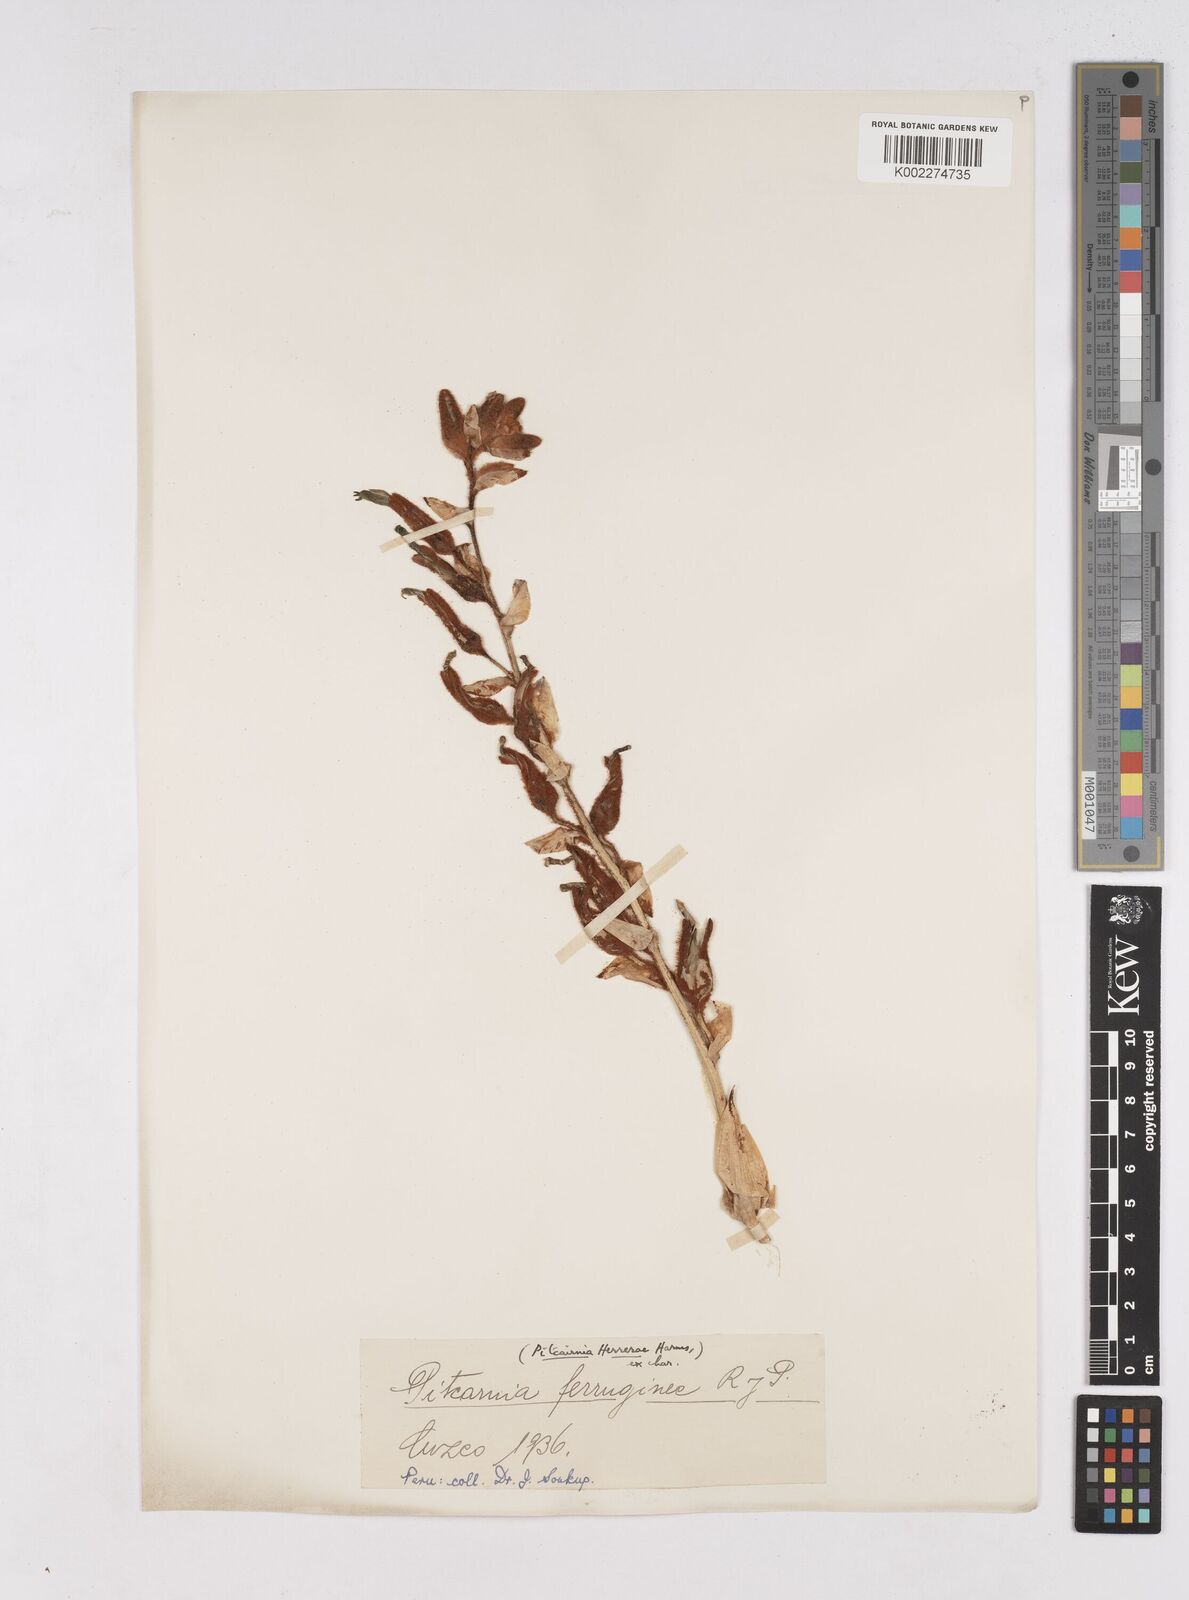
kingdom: Plantae
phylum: Tracheophyta
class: Liliopsida
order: Poales
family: Bromeliaceae
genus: Puya
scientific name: Puya ferruginea
